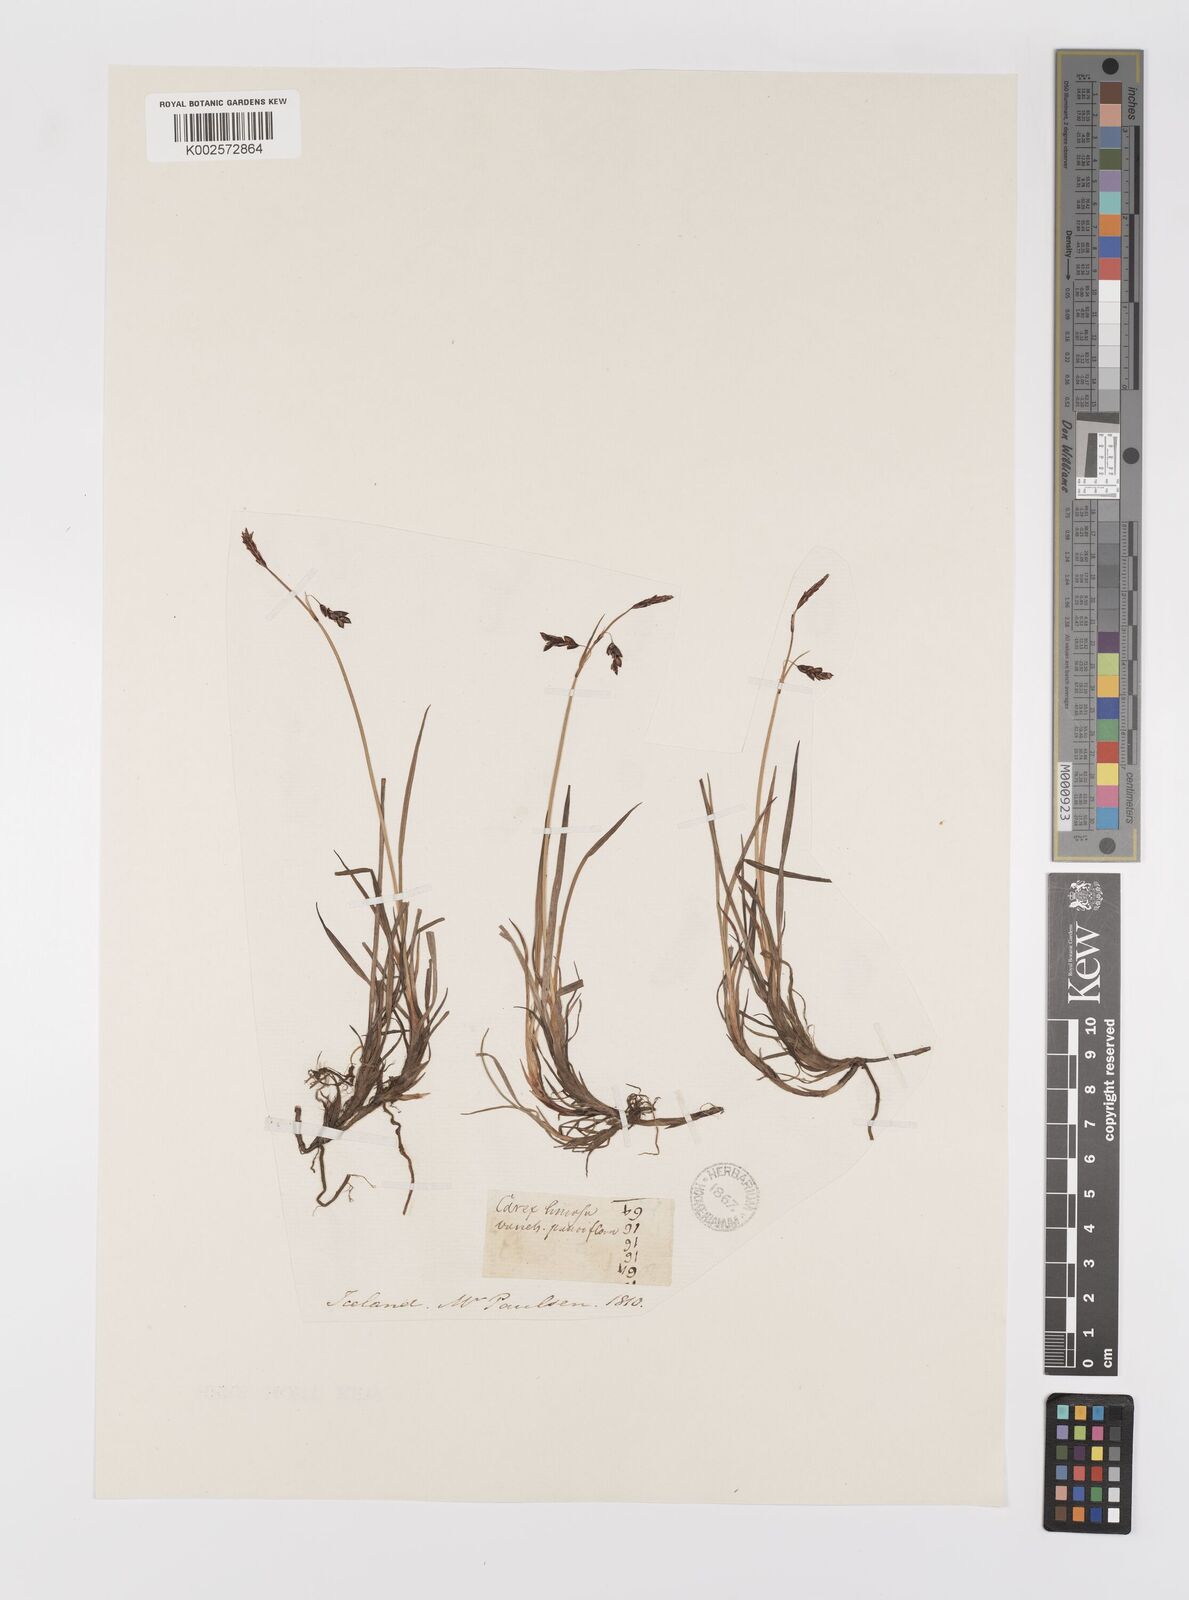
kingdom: Plantae
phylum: Tracheophyta
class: Liliopsida
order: Poales
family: Cyperaceae
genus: Carex
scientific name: Carex rariflora
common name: Loose-flowered alpine sedge
